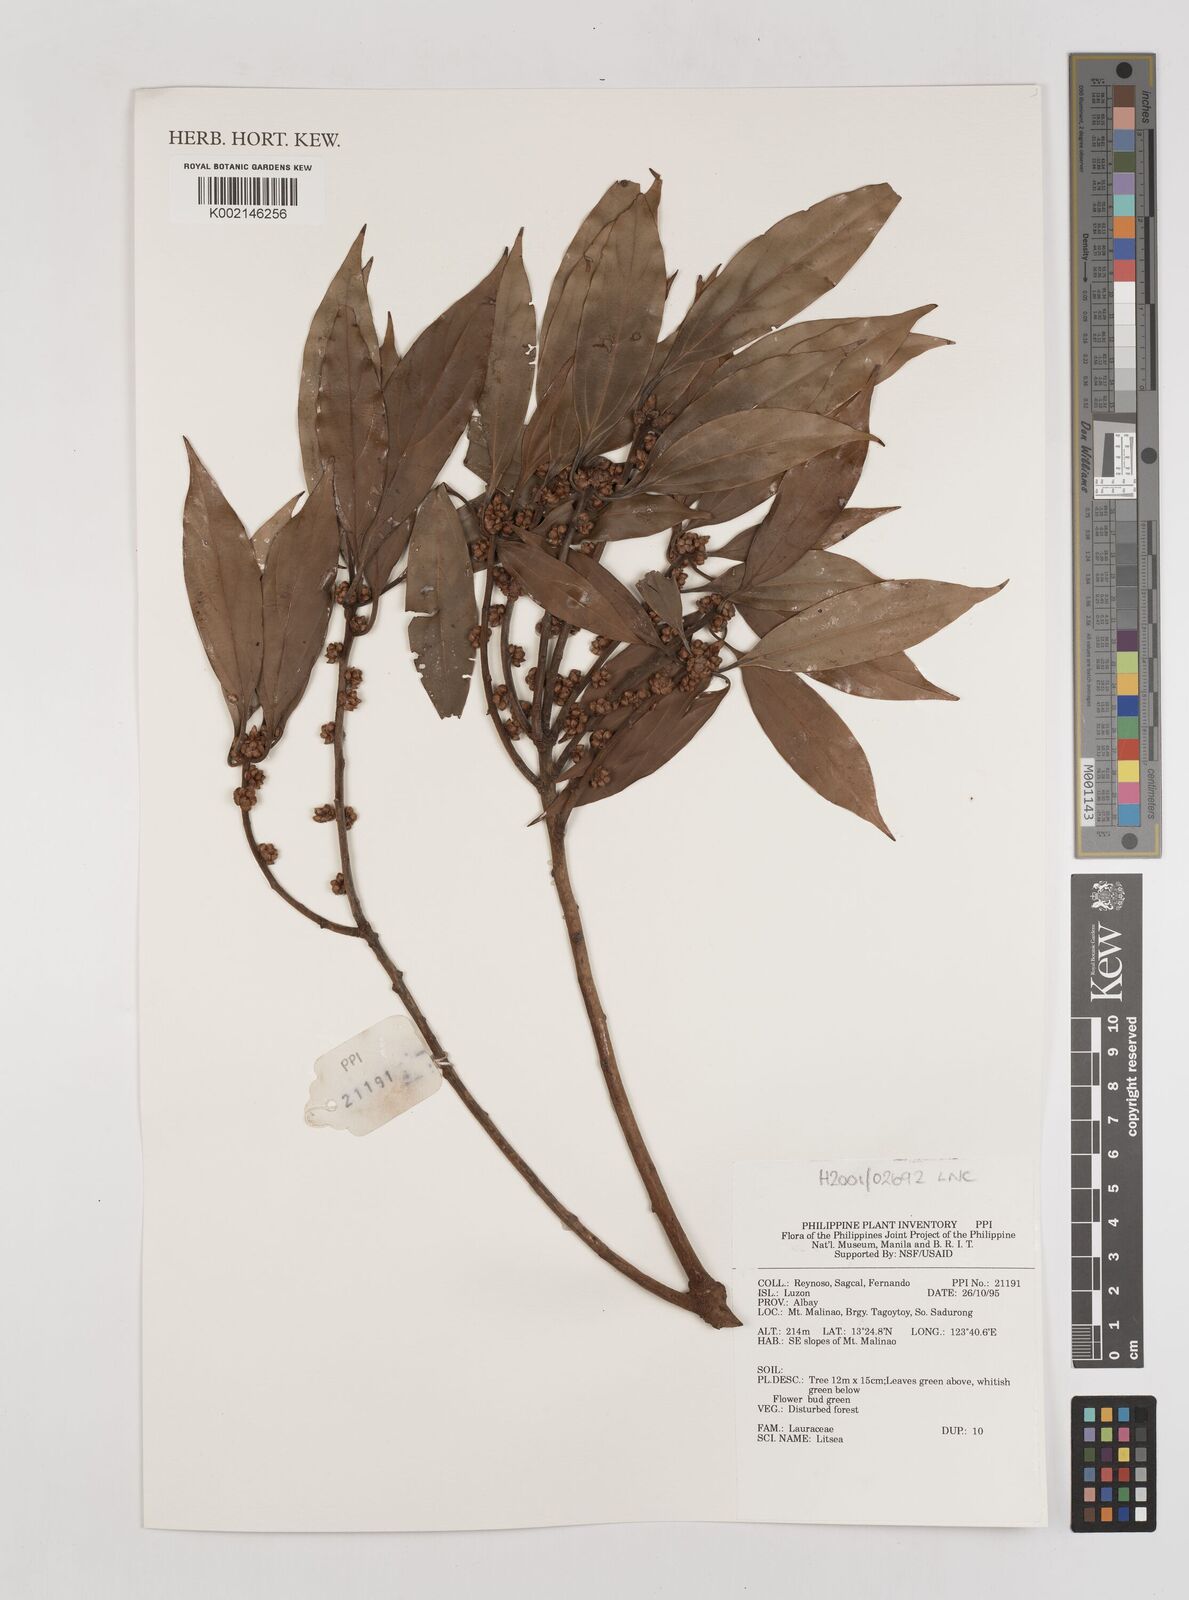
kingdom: Plantae
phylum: Tracheophyta
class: Magnoliopsida
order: Laurales
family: Lauraceae
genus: Litsea
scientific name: Litsea
